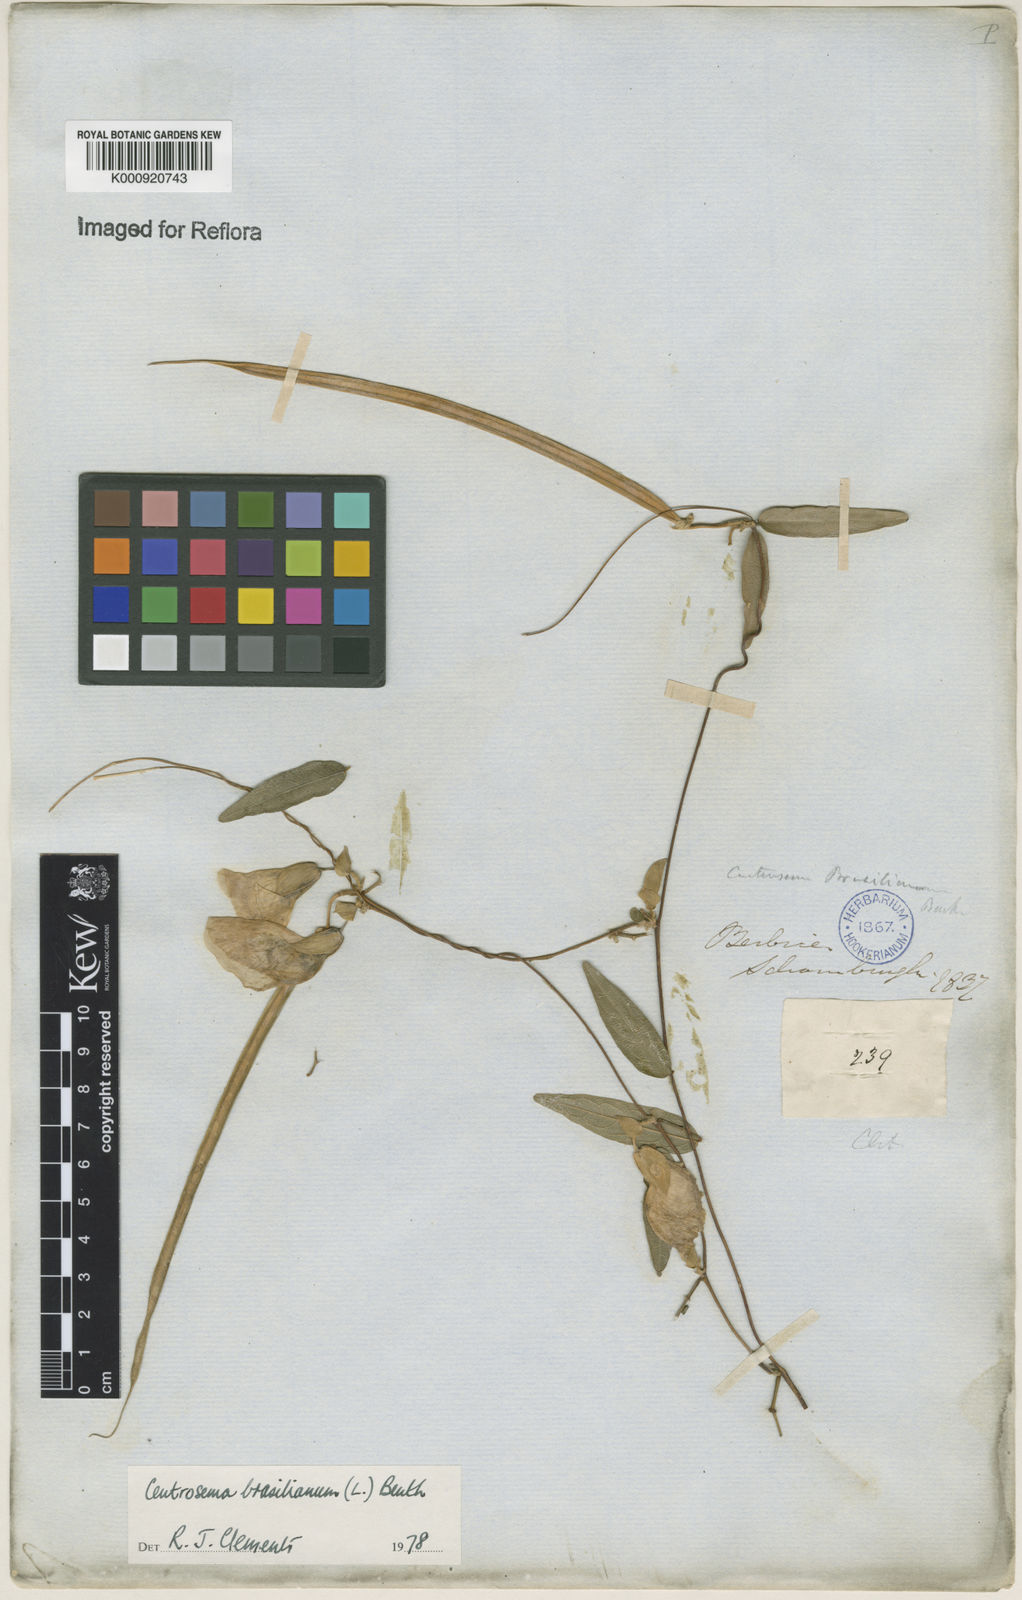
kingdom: Plantae
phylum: Tracheophyta
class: Magnoliopsida
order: Fabales
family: Fabaceae
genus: Centrosema
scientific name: Centrosema brasilianum
